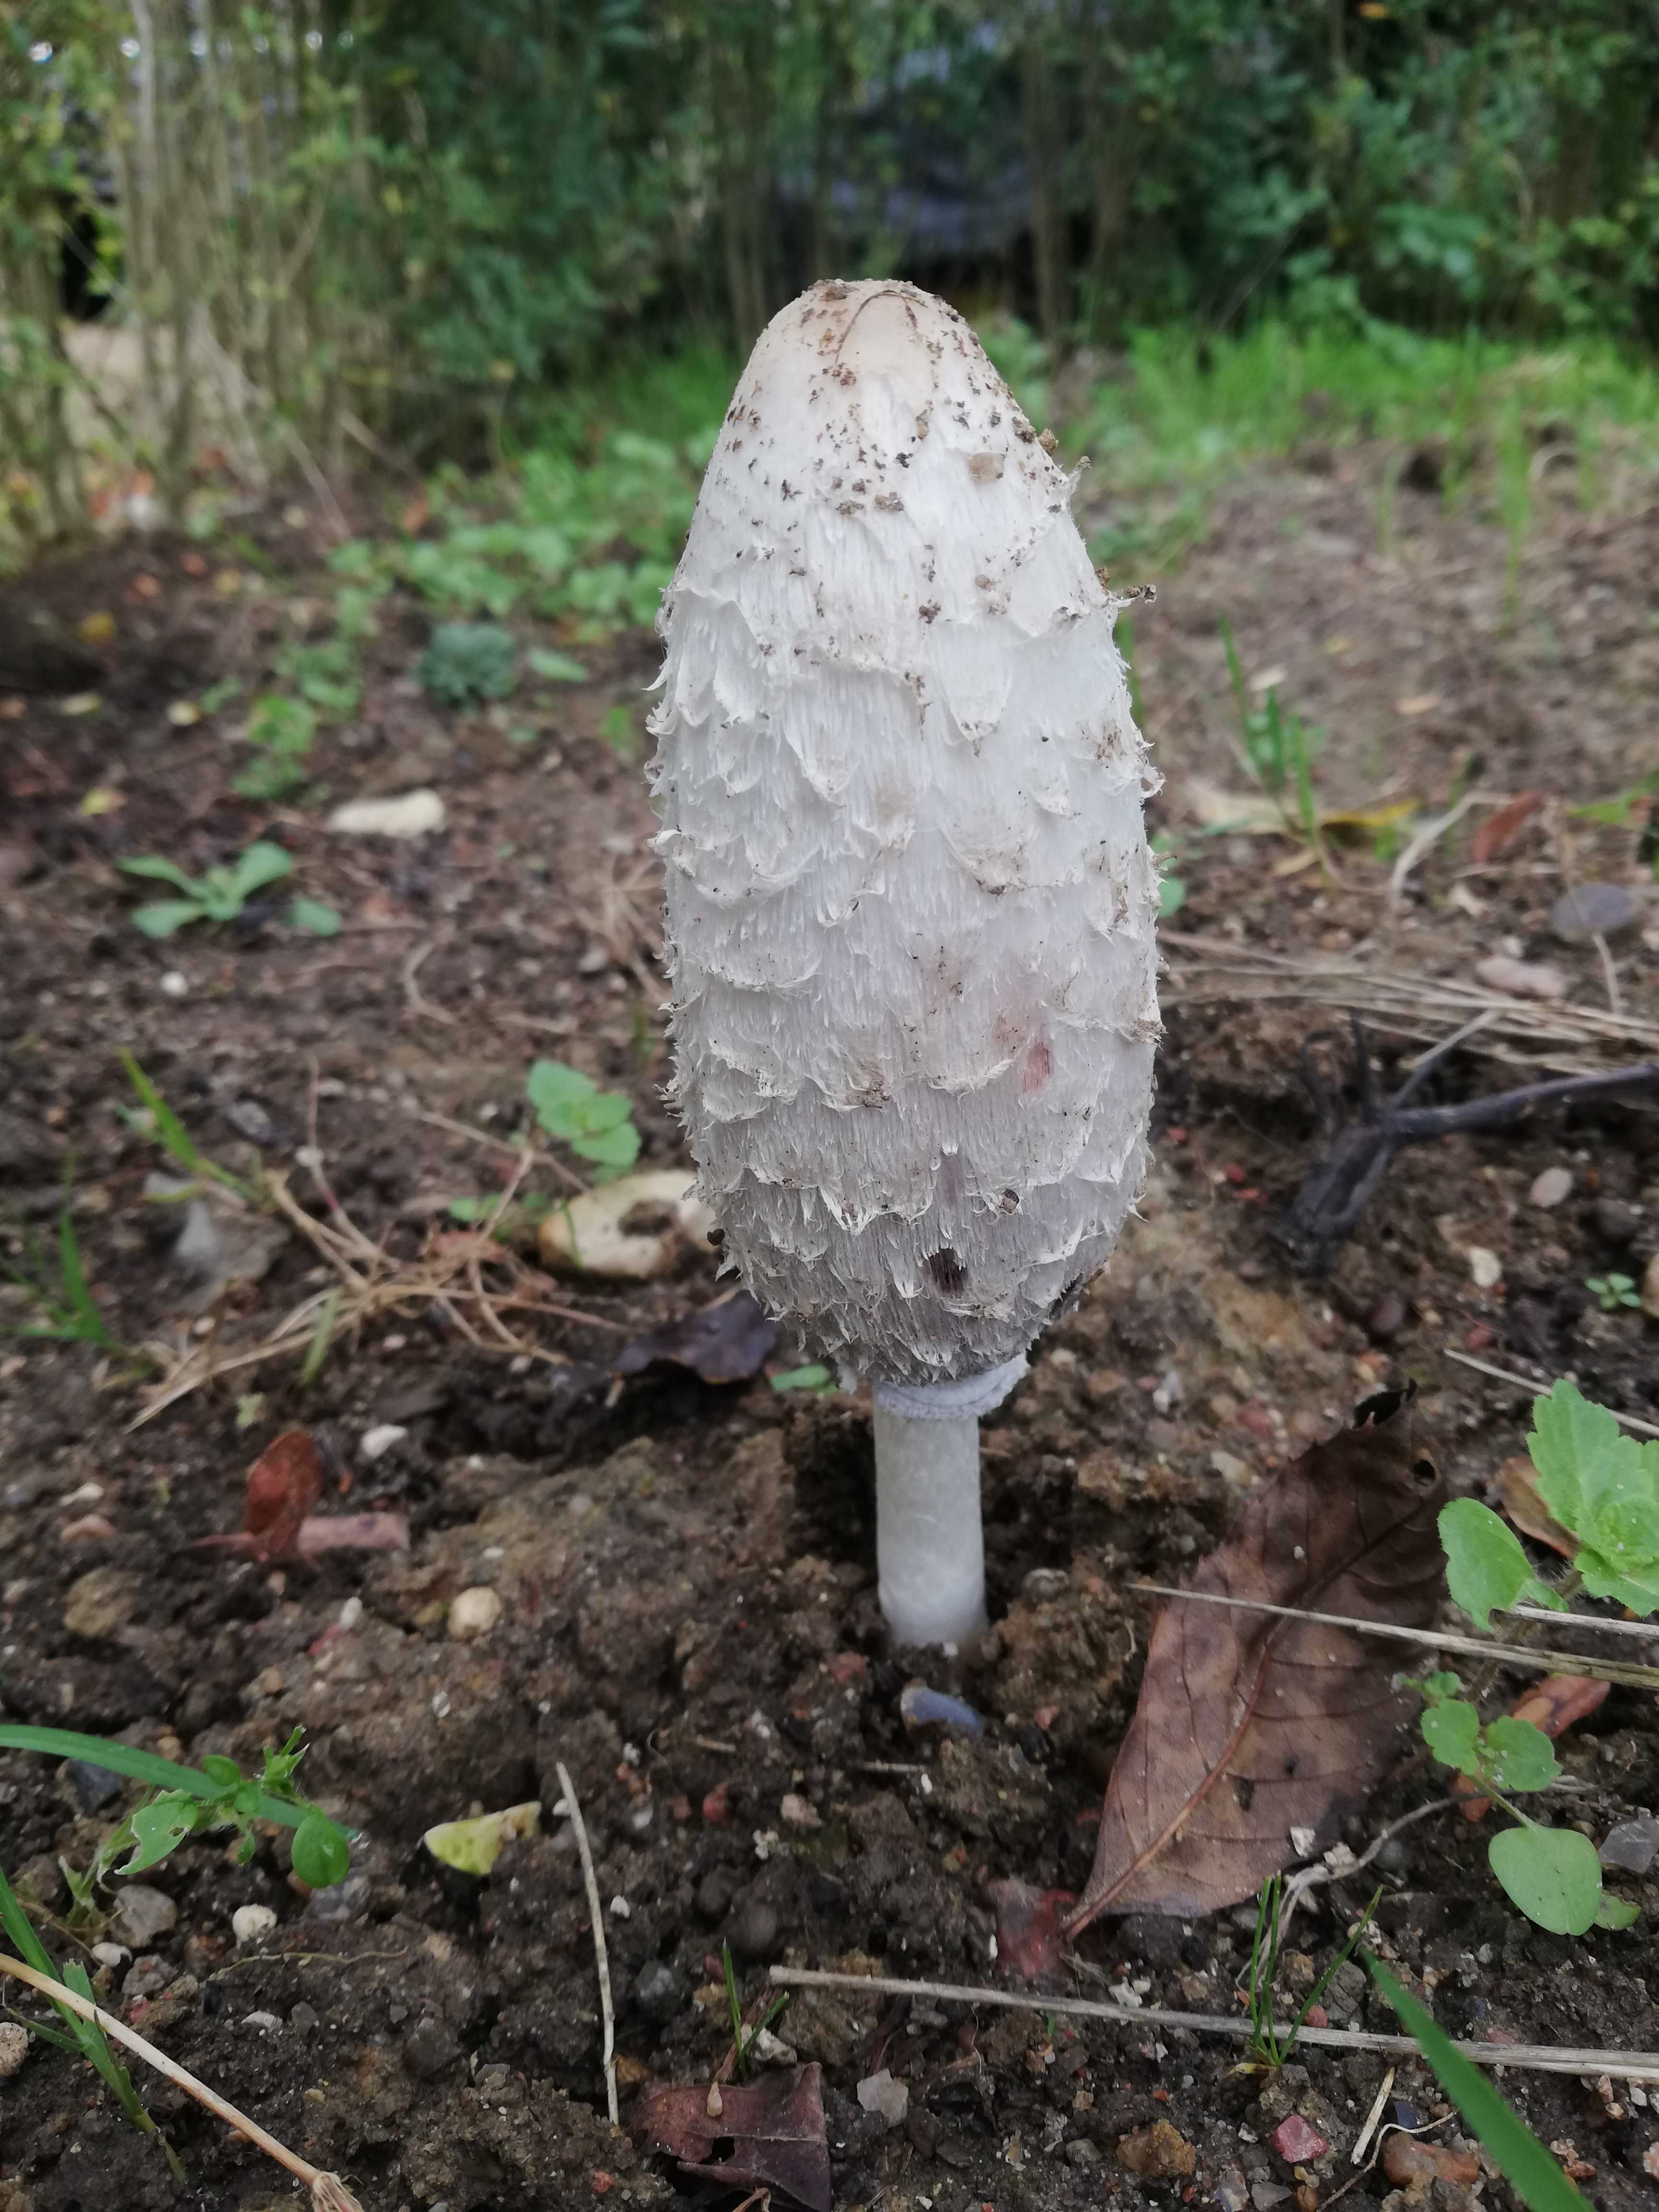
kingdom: Fungi
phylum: Basidiomycota
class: Agaricomycetes
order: Agaricales
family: Agaricaceae
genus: Coprinus
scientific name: Coprinus comatus
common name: stor parykhat
